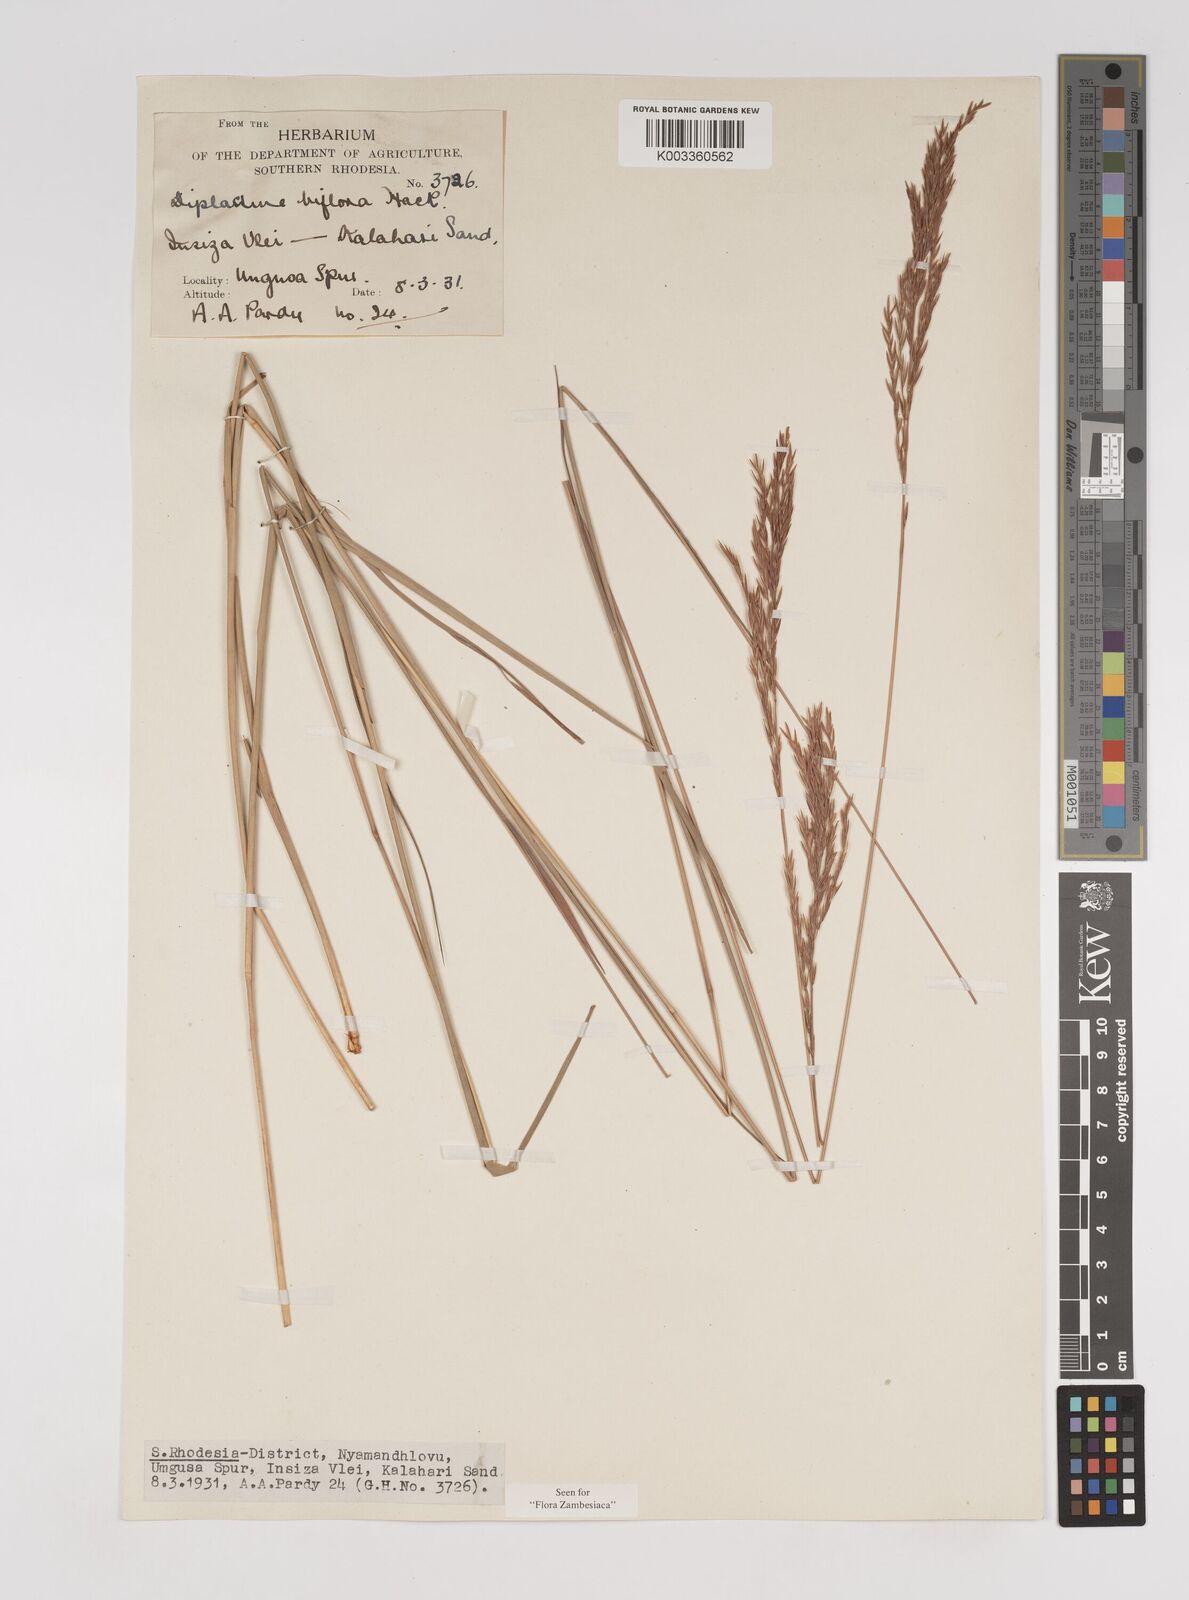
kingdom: Plantae
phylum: Tracheophyta
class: Liliopsida
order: Poales
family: Poaceae
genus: Bewsia
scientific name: Bewsia biflora
